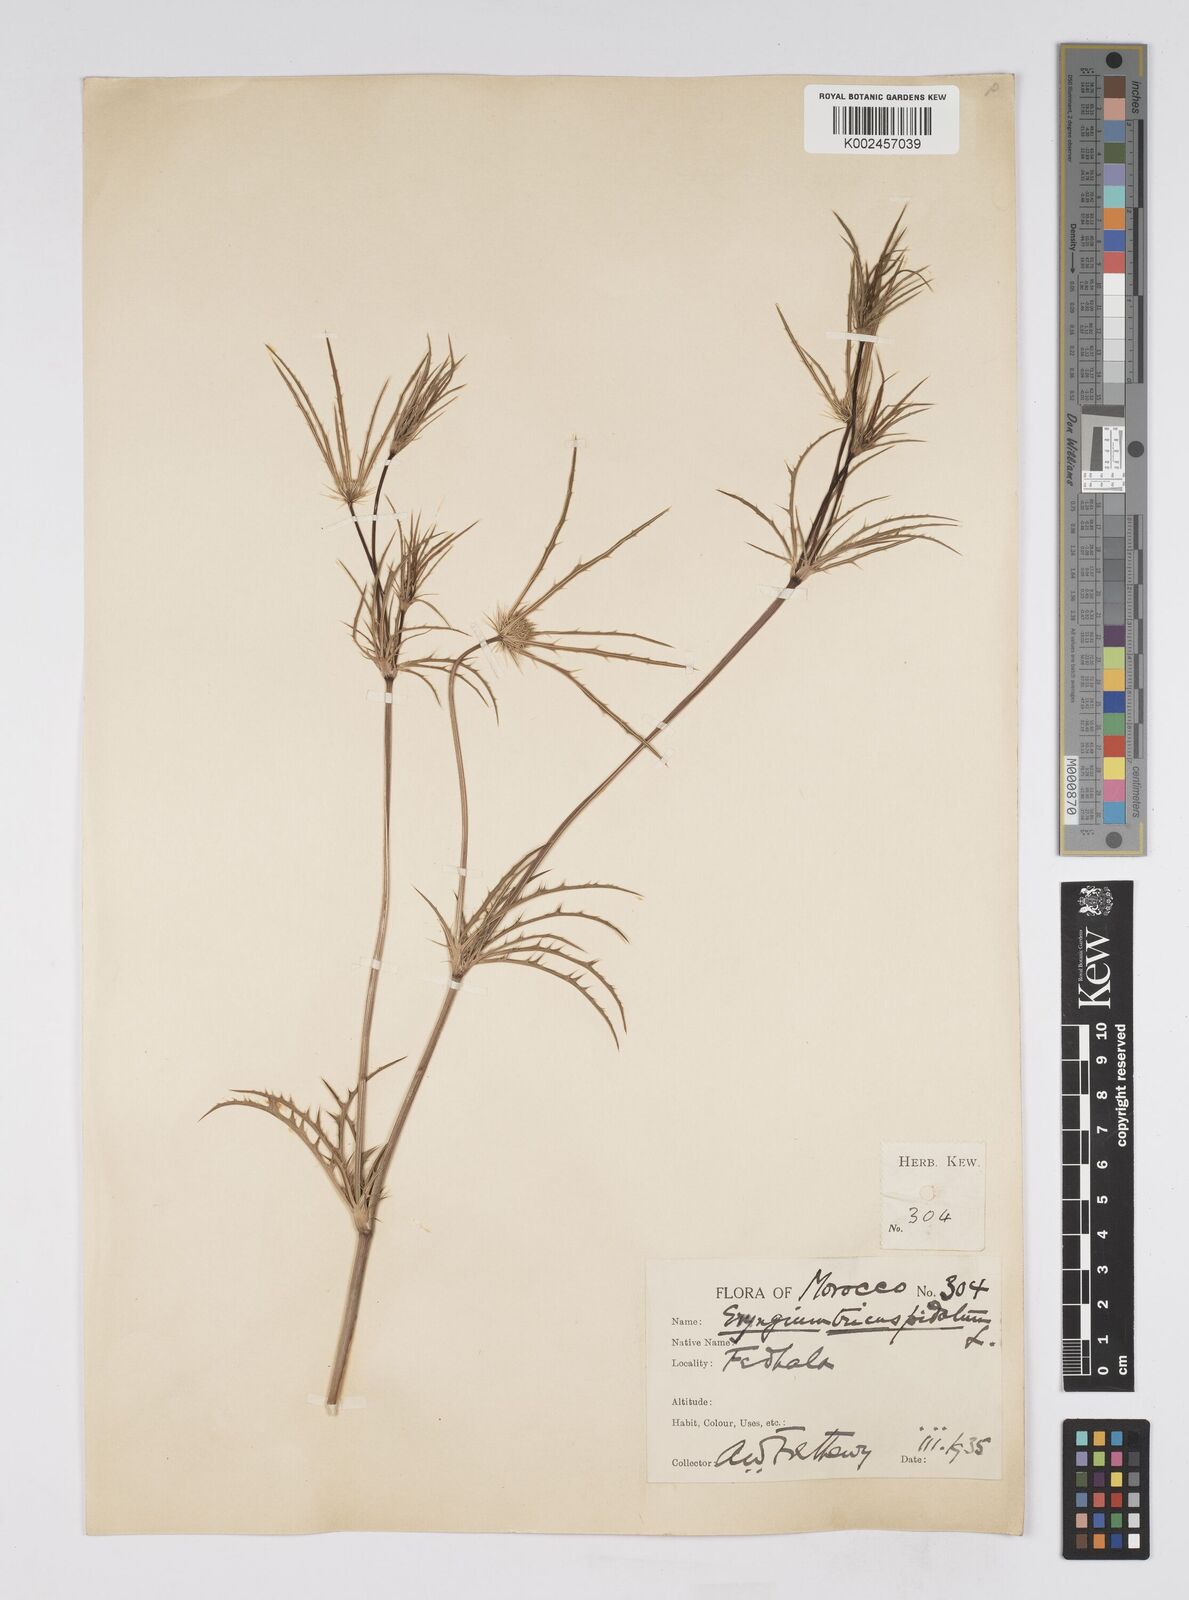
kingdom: Plantae
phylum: Tracheophyta
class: Magnoliopsida
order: Apiales
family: Apiaceae
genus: Eryngium
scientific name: Eryngium tricuspidatum
